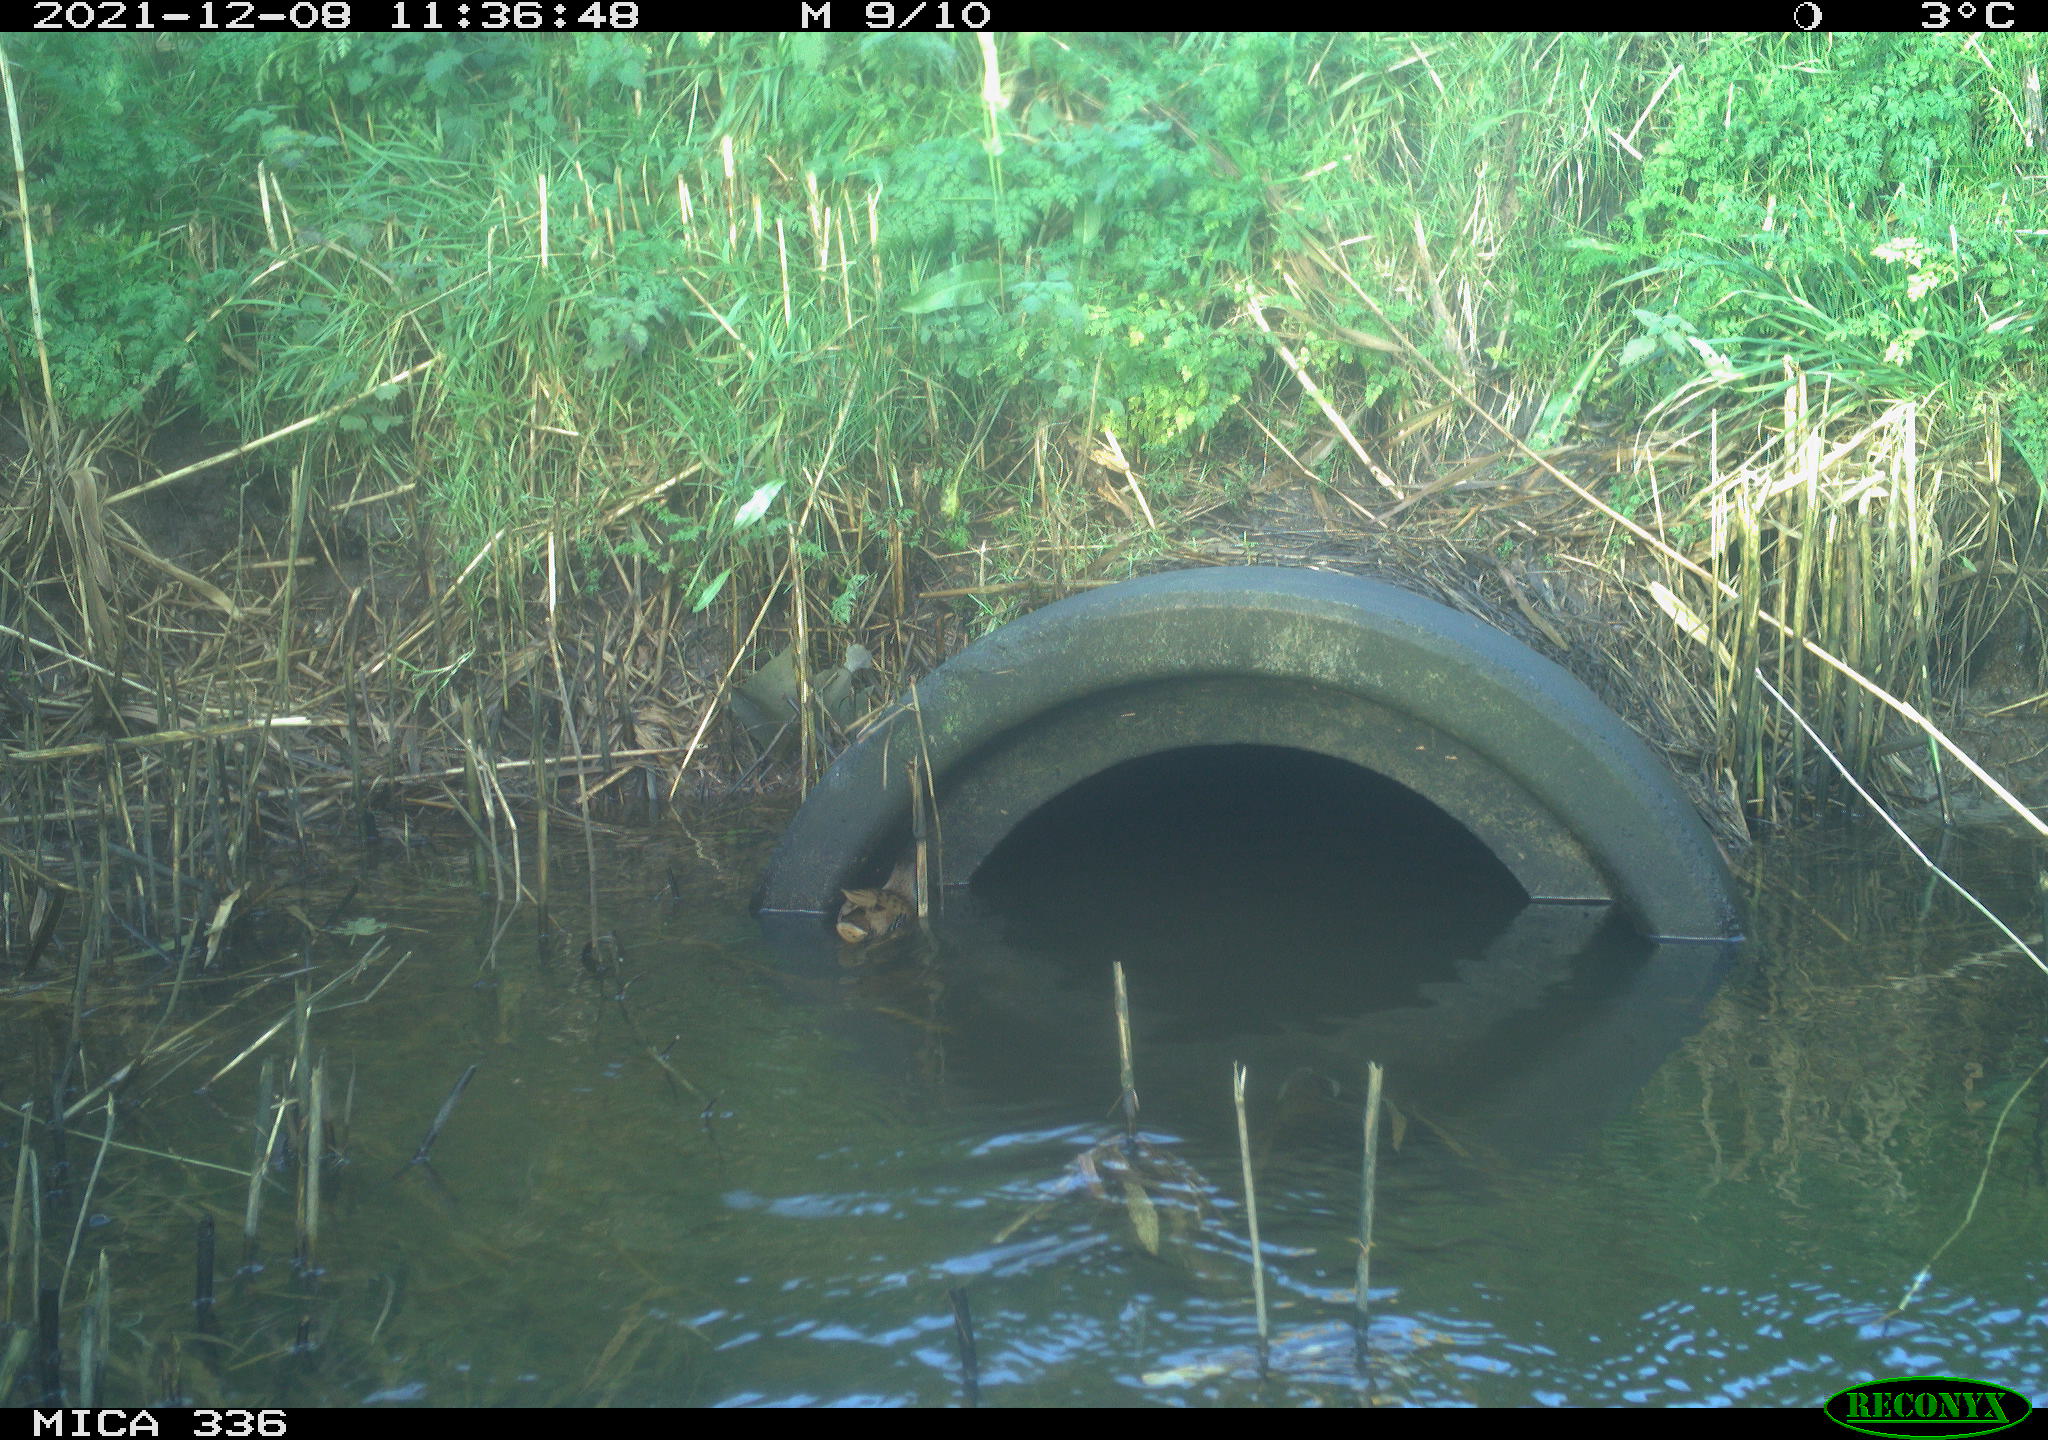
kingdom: Animalia
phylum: Chordata
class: Aves
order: Gruiformes
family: Rallidae
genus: Gallinula
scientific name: Gallinula chloropus
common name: Common moorhen
